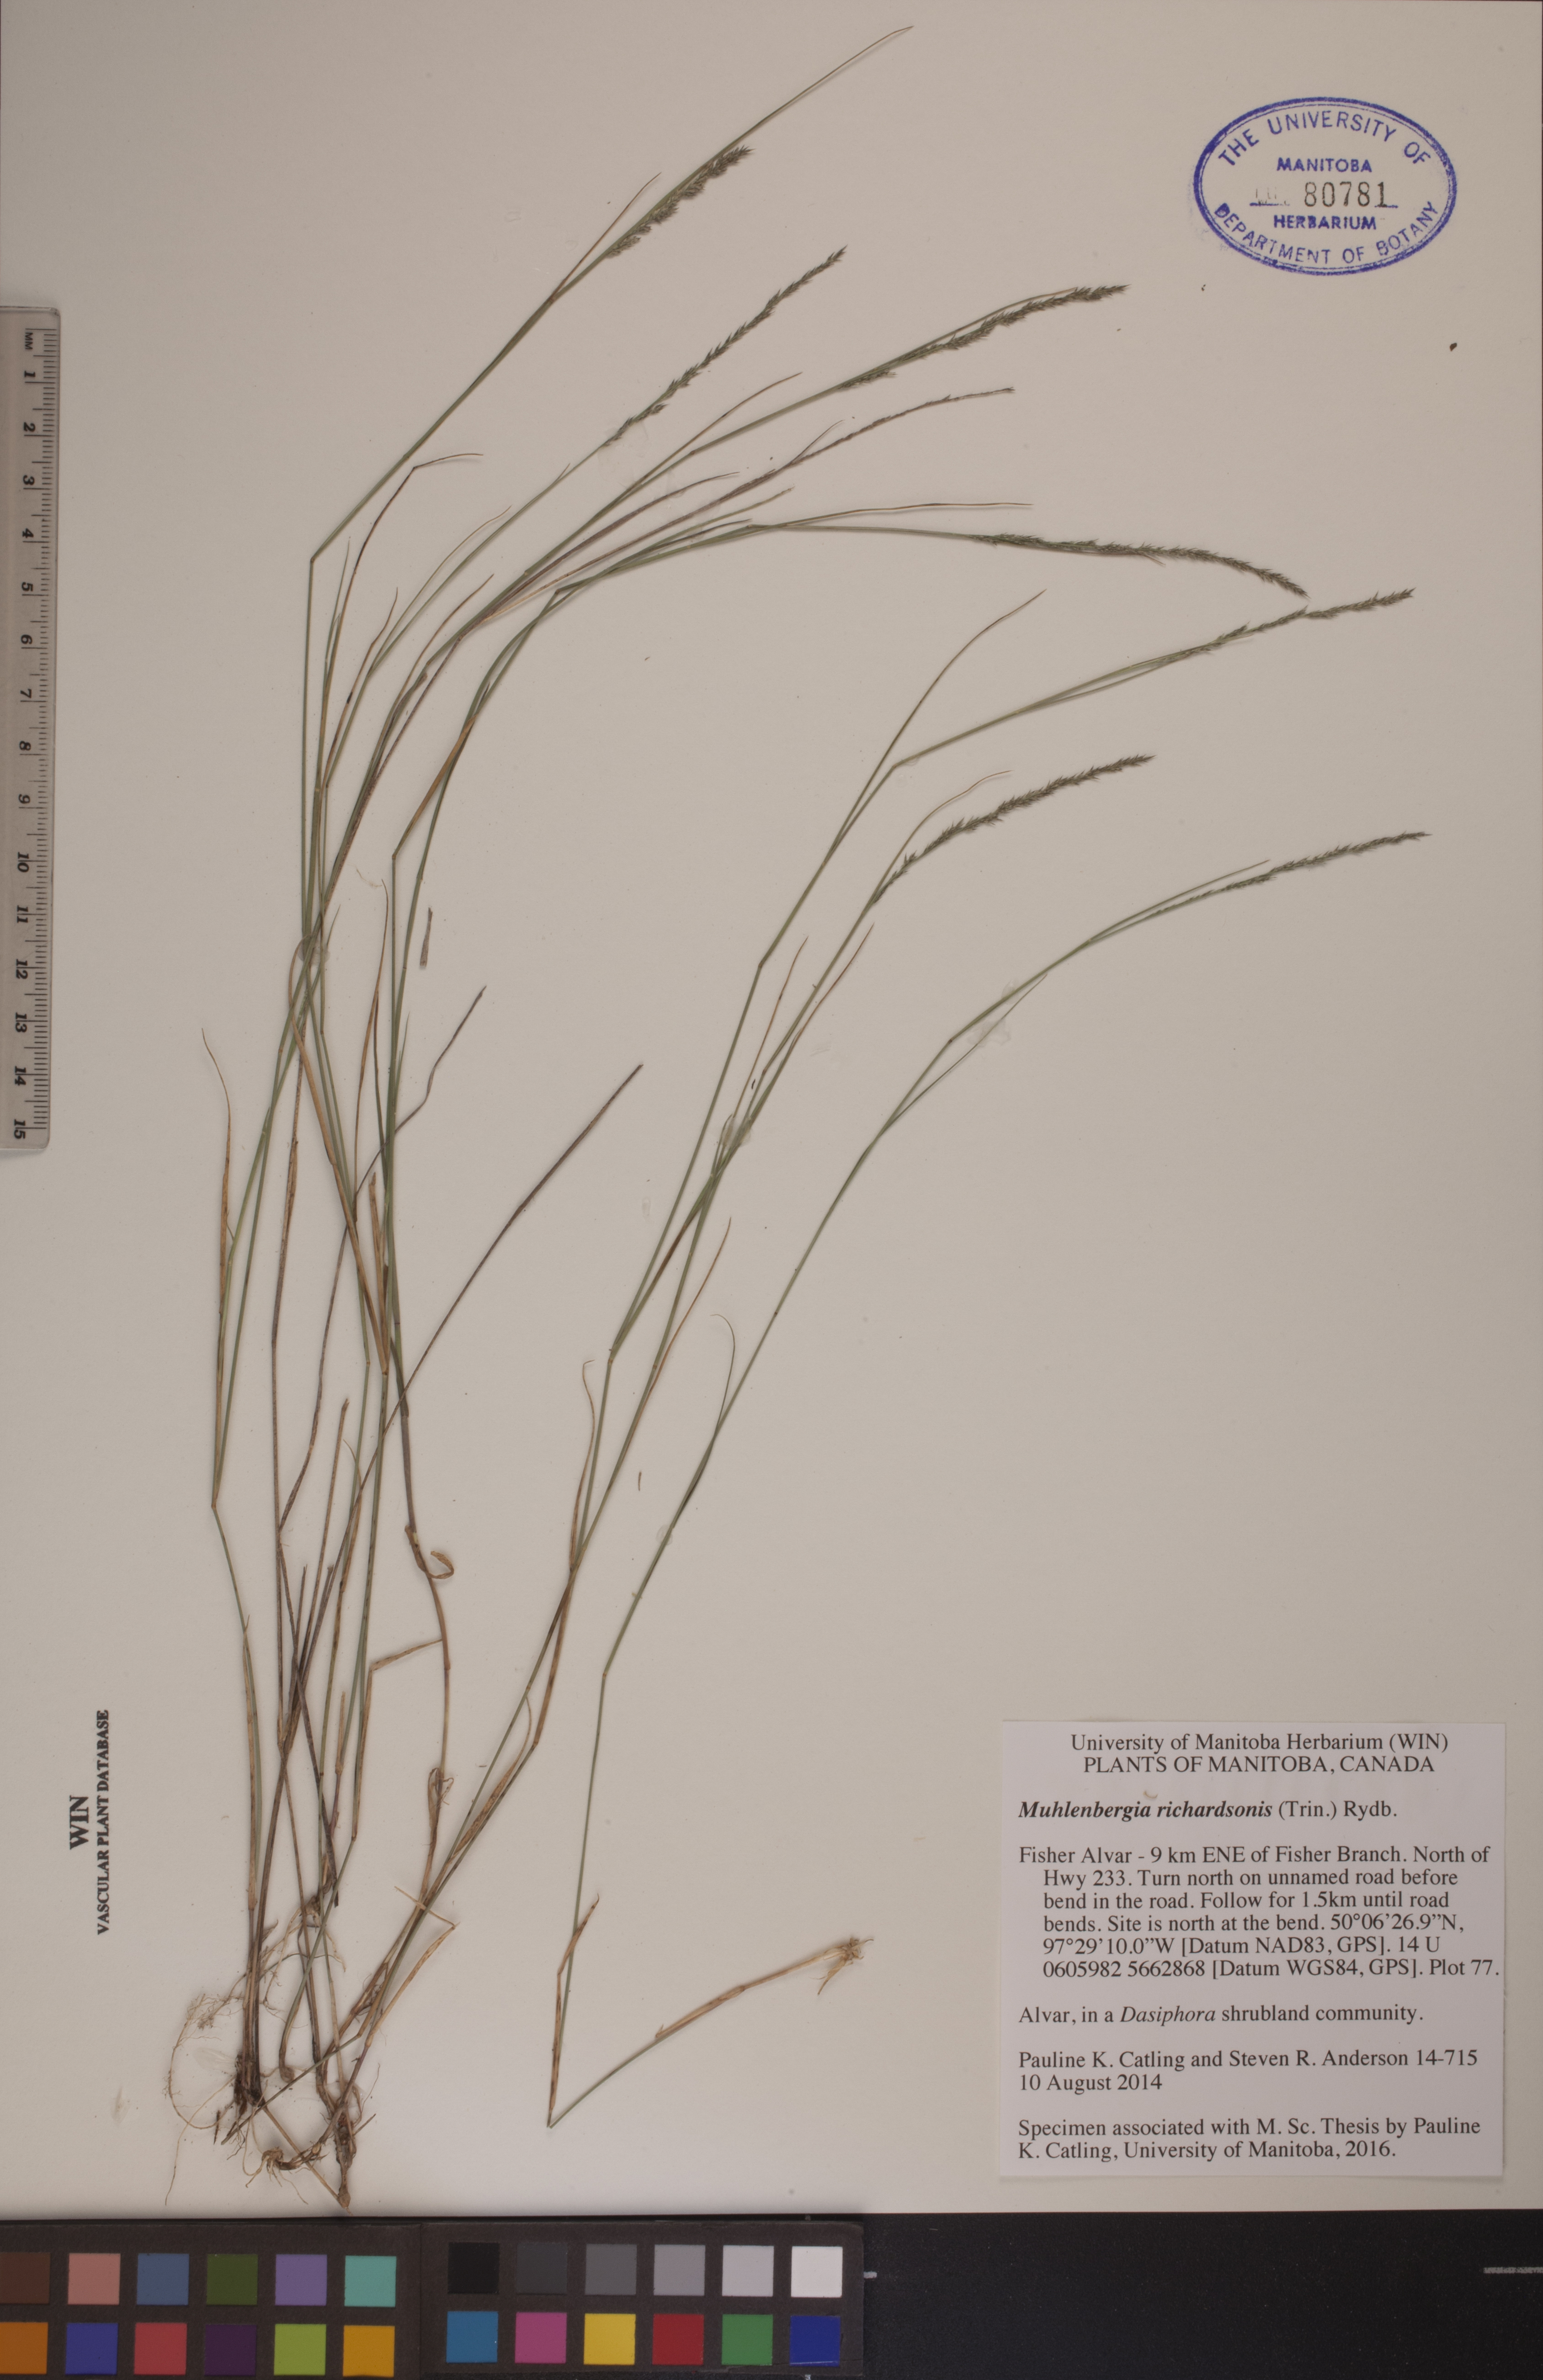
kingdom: Plantae
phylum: Tracheophyta
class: Liliopsida
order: Poales
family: Poaceae
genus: Muhlenbergia
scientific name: Muhlenbergia richardsonis
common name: Mat muhly
